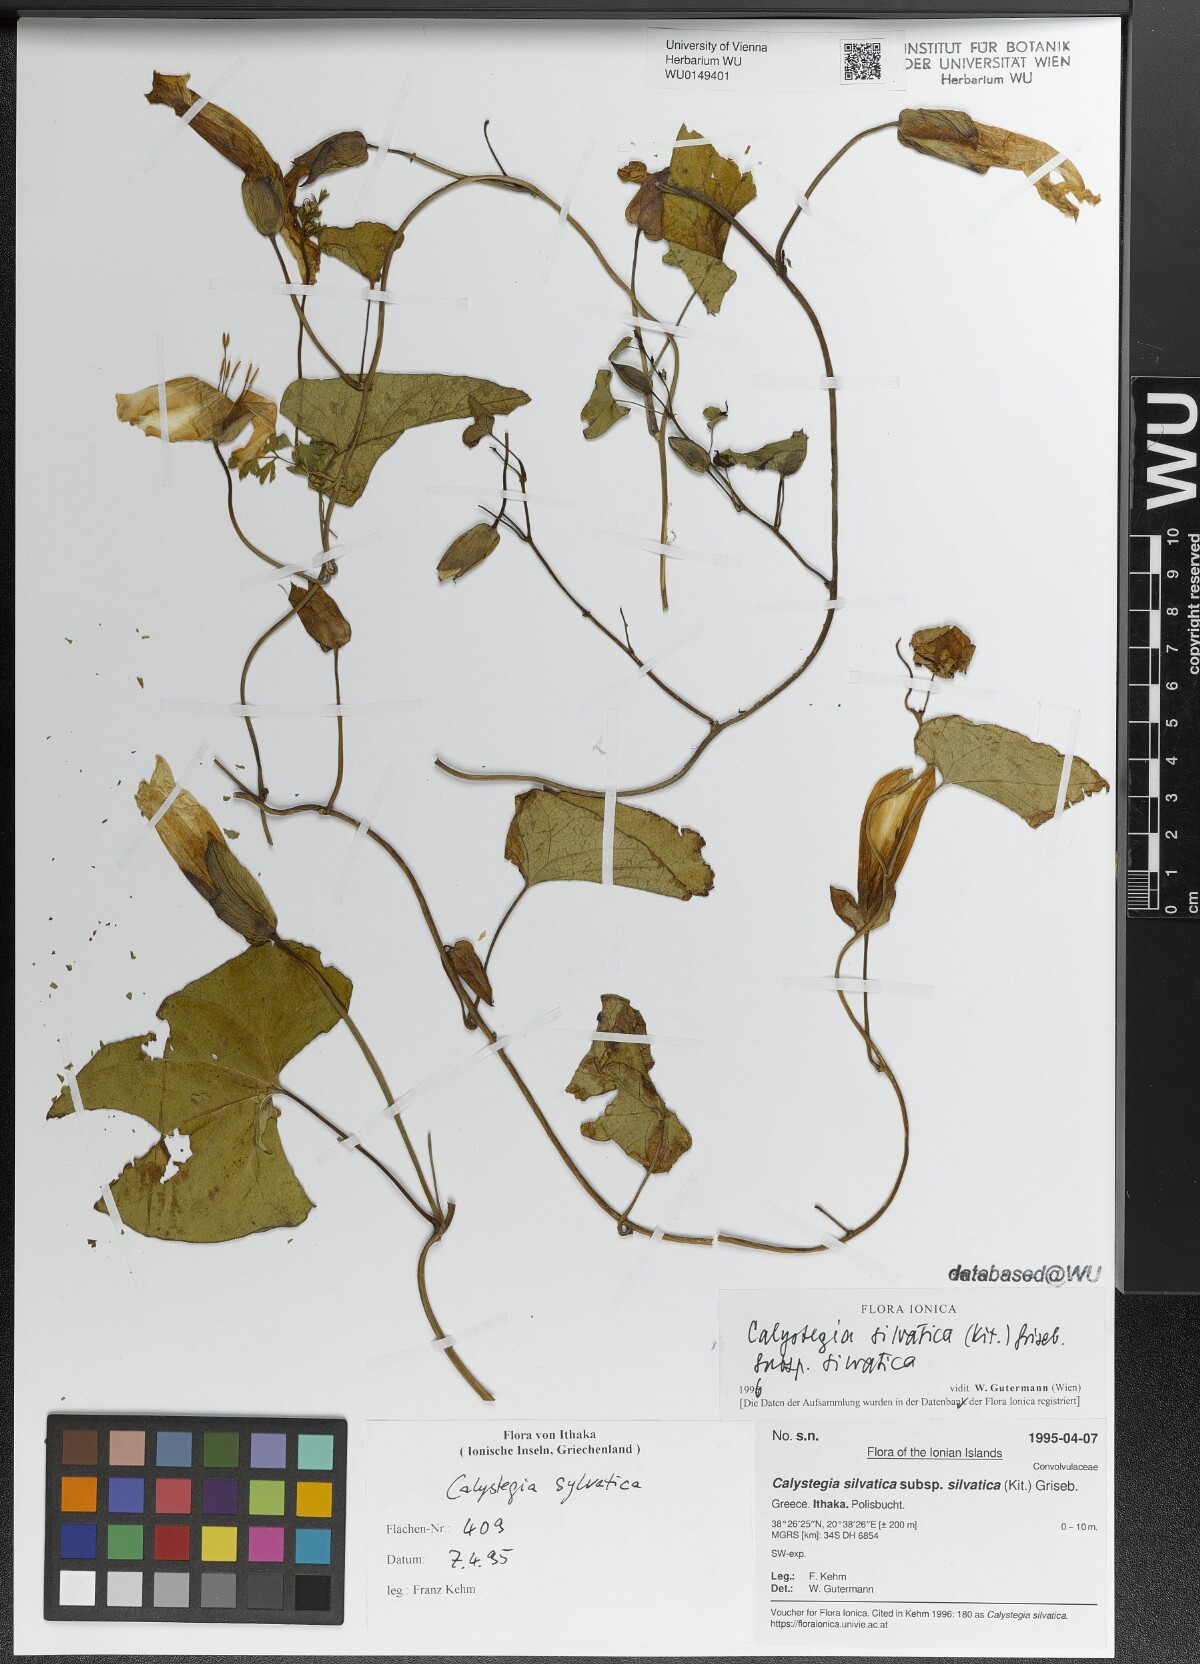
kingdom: Plantae
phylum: Tracheophyta
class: Magnoliopsida
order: Solanales
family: Convolvulaceae
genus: Calystegia
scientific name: Calystegia silvatica
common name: Large bindweed
